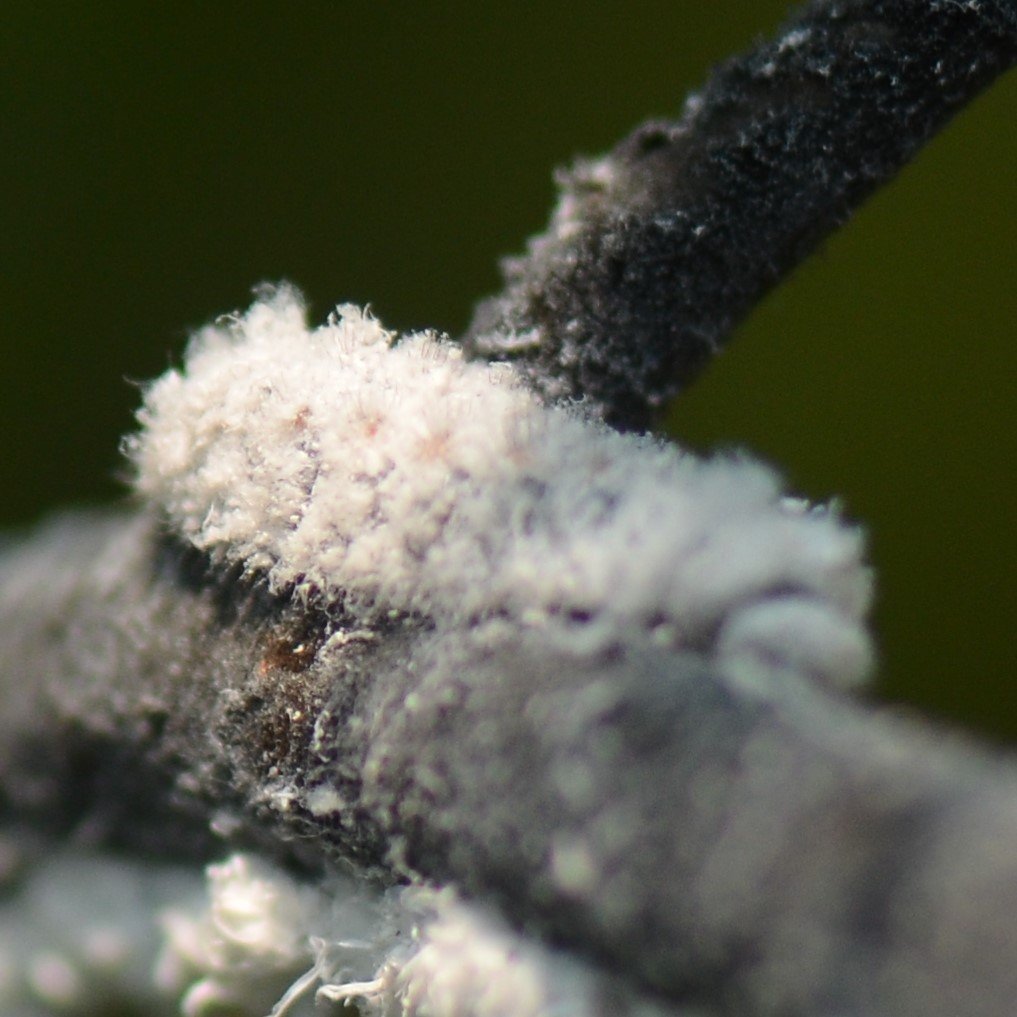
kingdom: Animalia
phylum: Arthropoda
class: Insecta
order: Lepidoptera
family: Lycaenidae
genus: Feniseca
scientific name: Feniseca tarquinius
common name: Harvester
